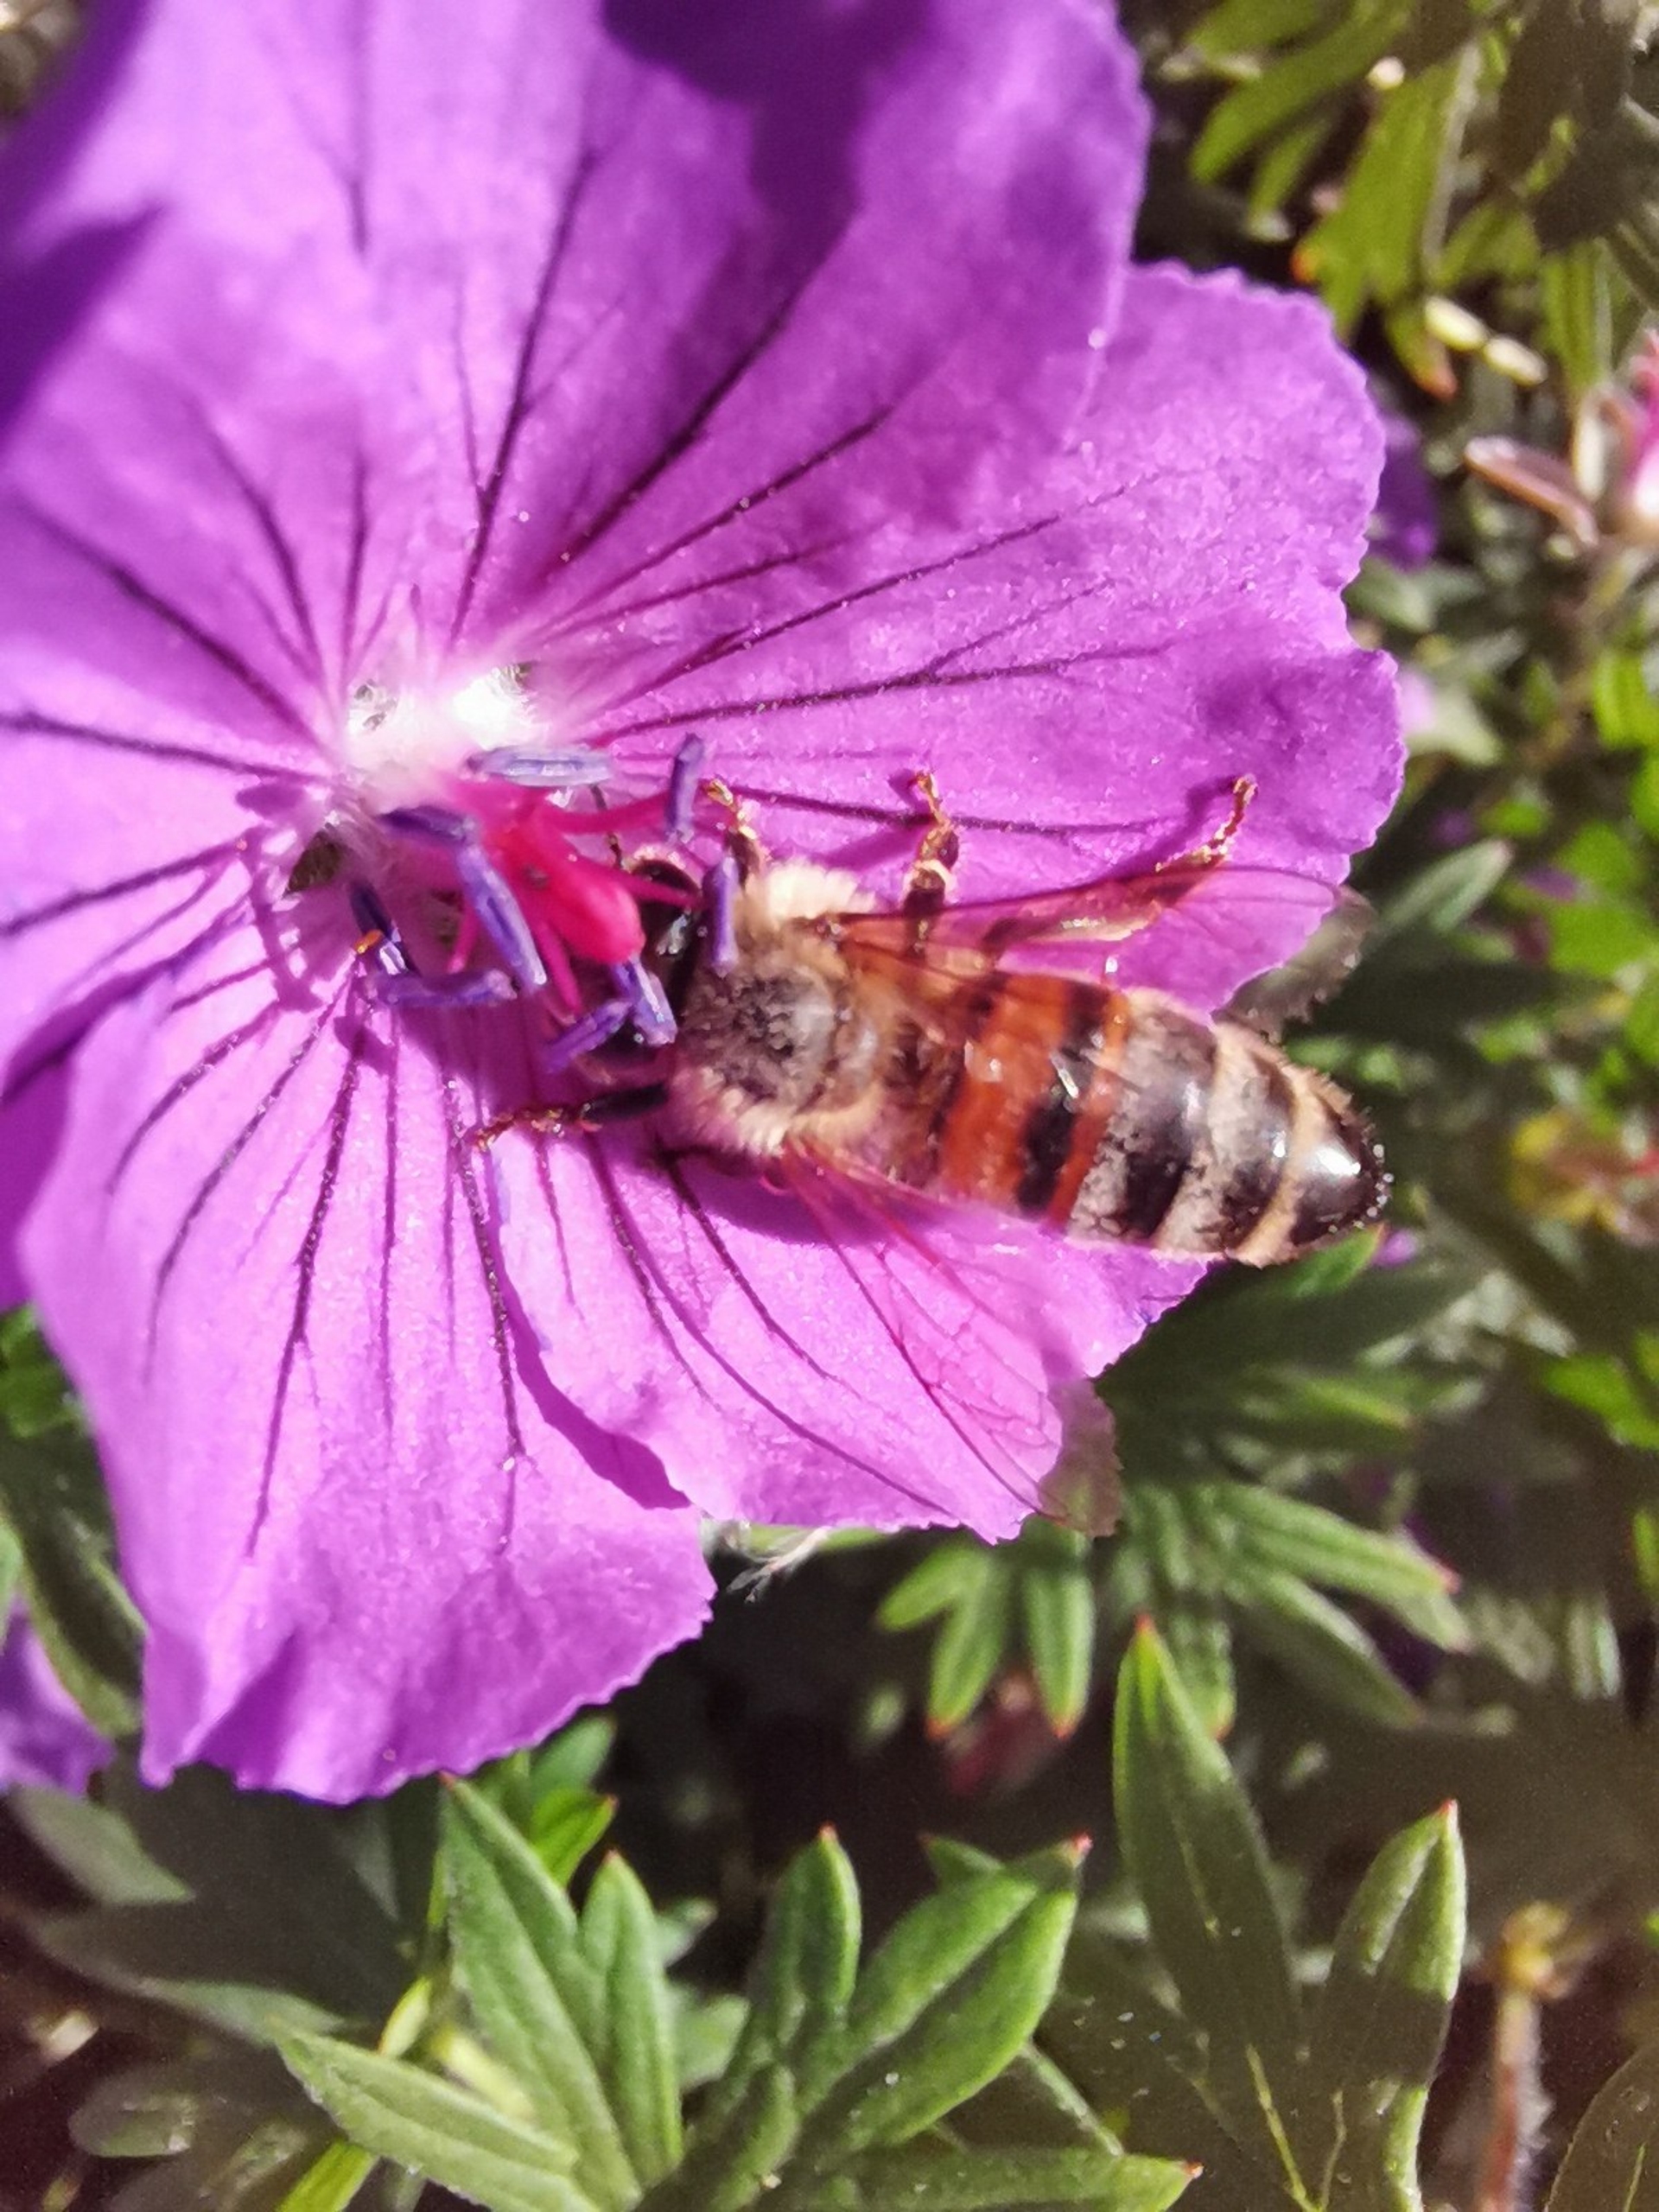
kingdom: Animalia
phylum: Arthropoda
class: Insecta
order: Hymenoptera
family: Apidae
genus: Apis
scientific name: Apis mellifera
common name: Honningbi
